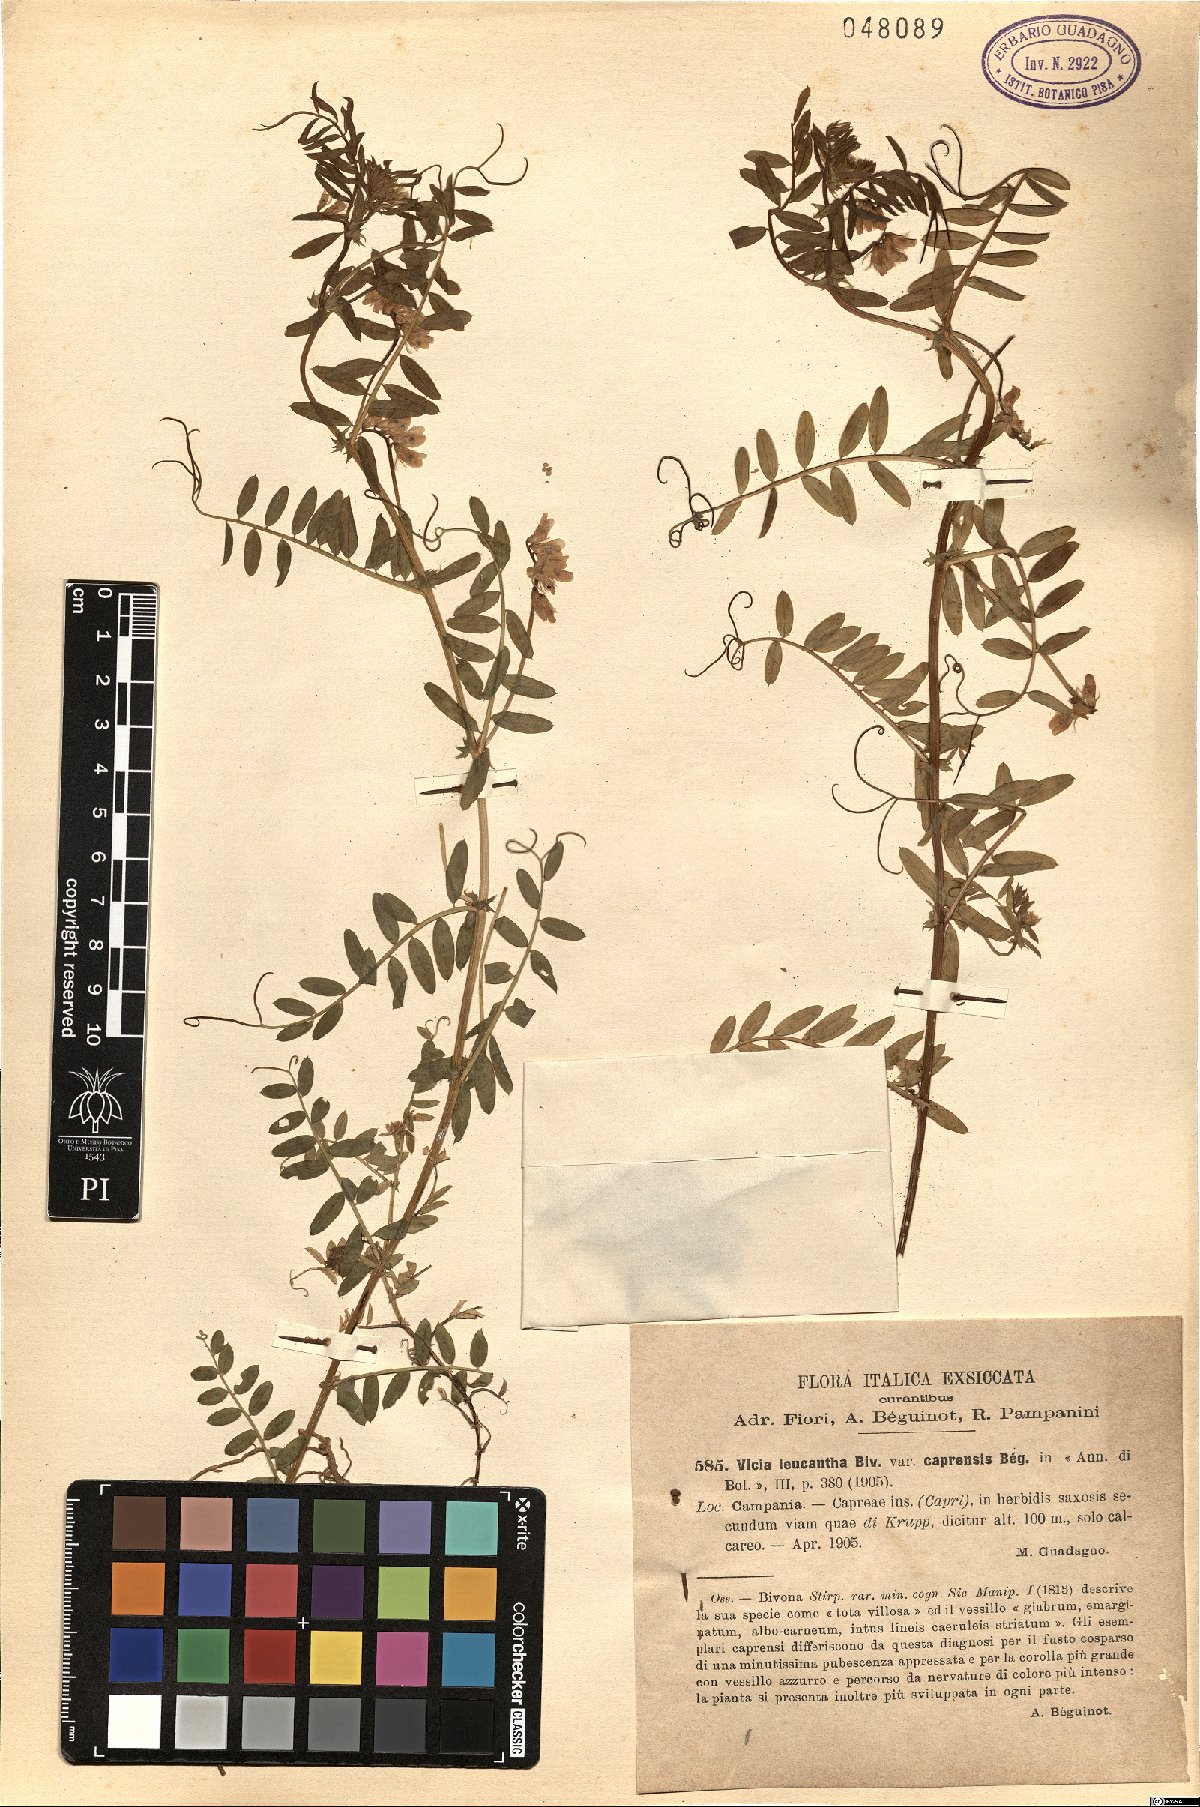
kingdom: Plantae
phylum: Tracheophyta
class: Magnoliopsida
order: Fabales
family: Fabaceae
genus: Vicia
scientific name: Vicia leucantha
